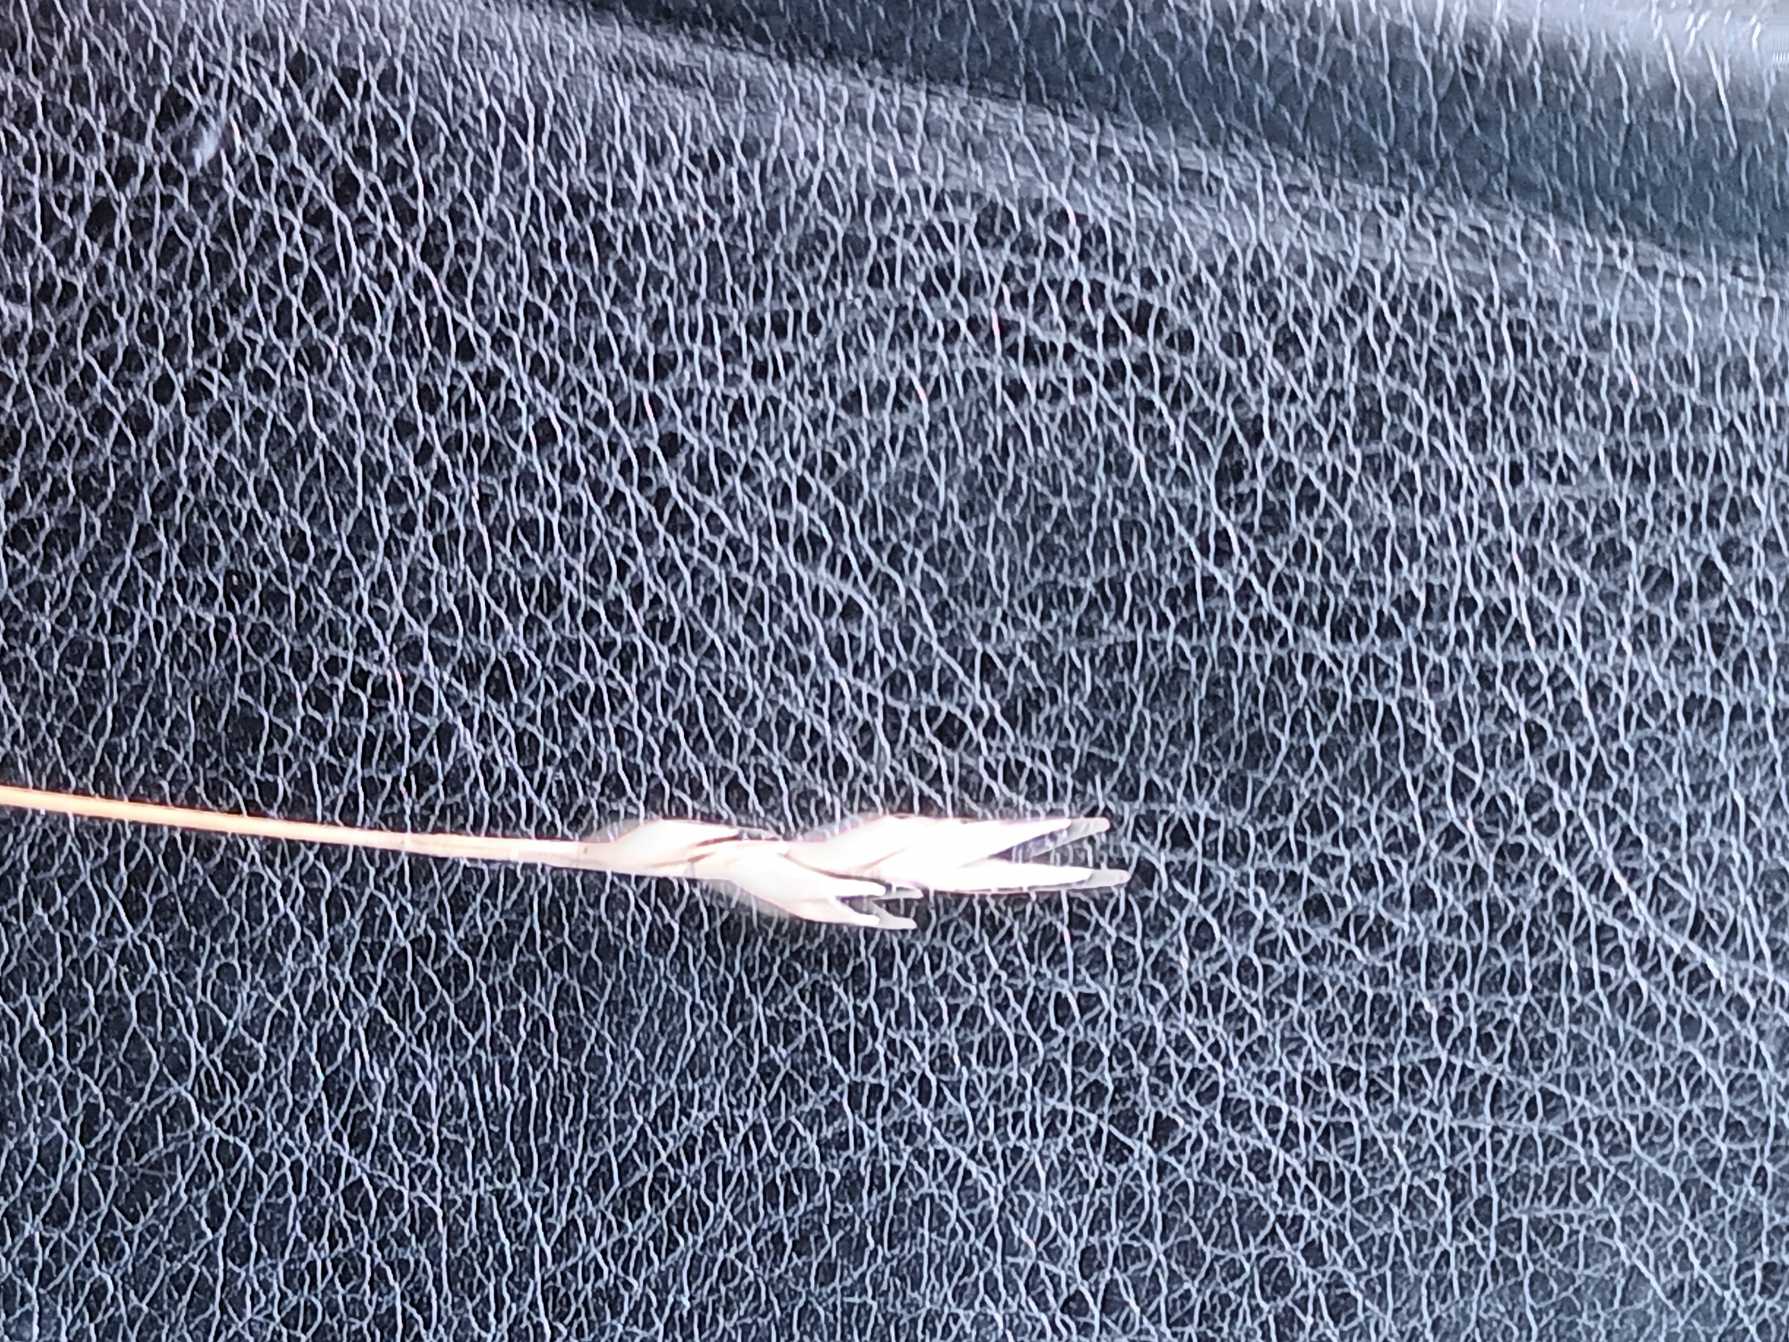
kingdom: Plantae
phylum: Tracheophyta
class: Liliopsida
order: Poales
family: Poaceae
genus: Danthonia
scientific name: Danthonia decumbens
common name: Tandbælg
